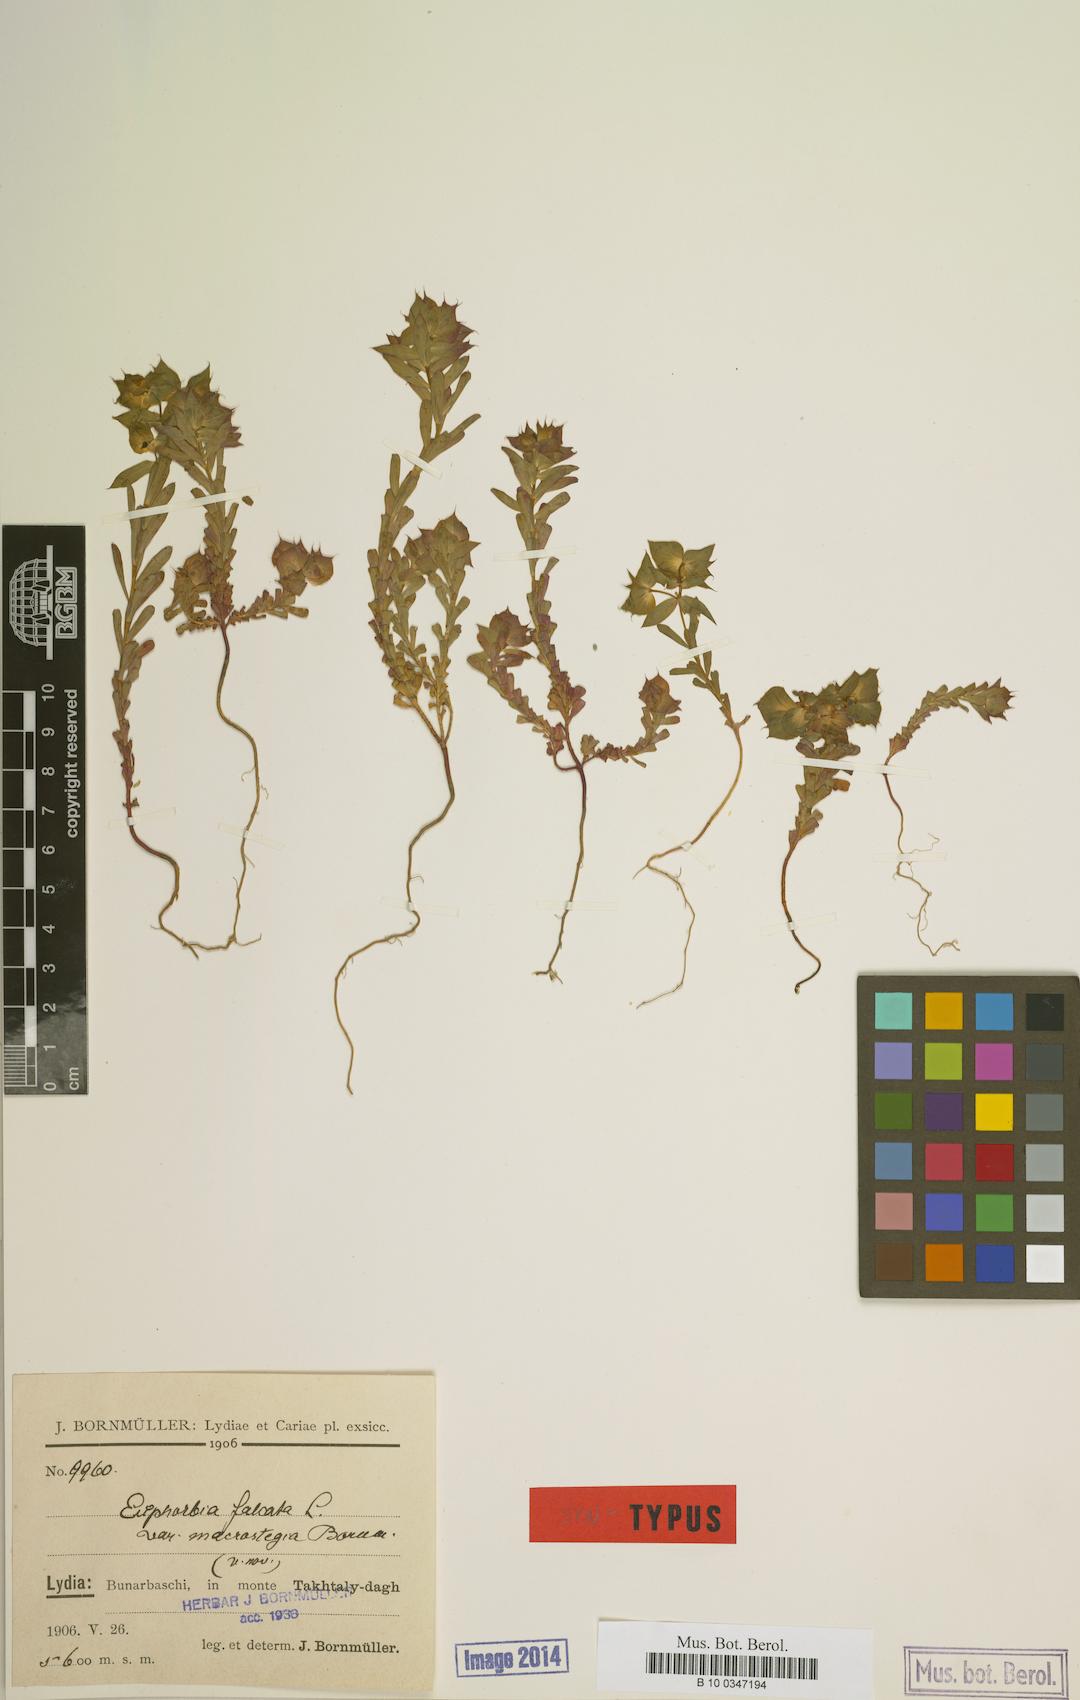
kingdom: Plantae
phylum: Tracheophyta
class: Magnoliopsida
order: Malpighiales
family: Euphorbiaceae
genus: Euphorbia
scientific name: Euphorbia falcata
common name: Sickle spurge
